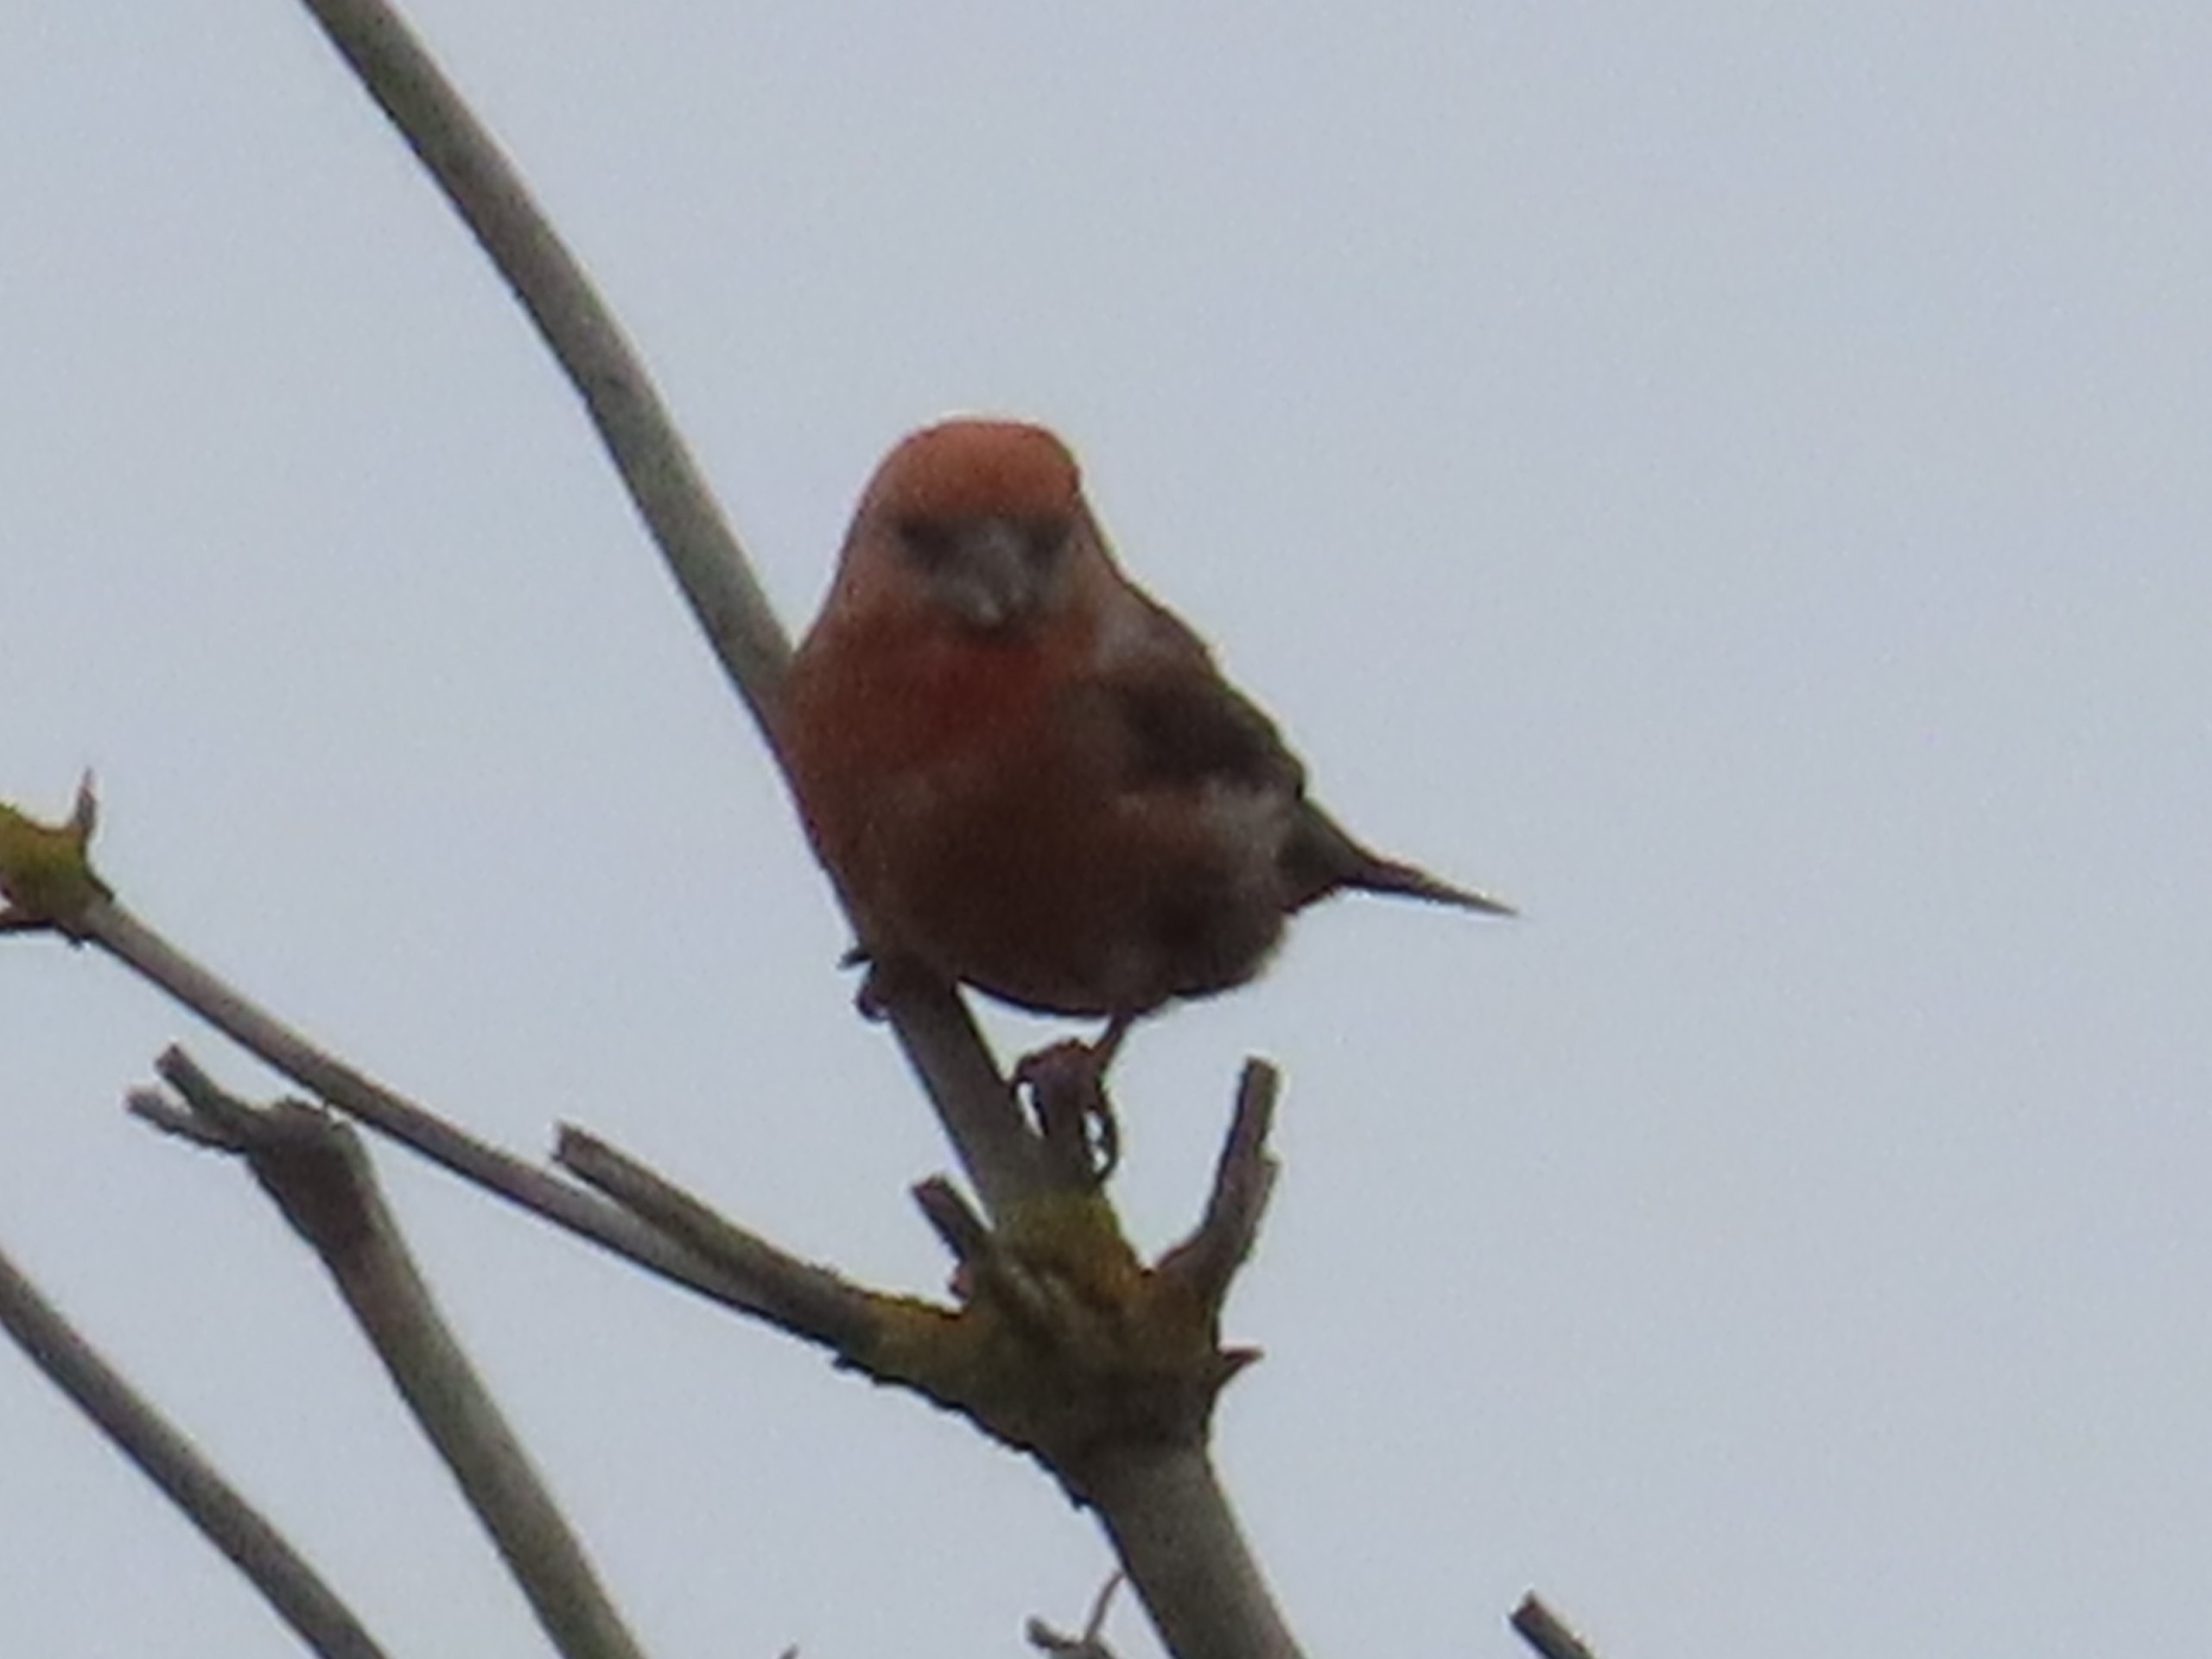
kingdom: Animalia
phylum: Chordata
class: Aves
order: Passeriformes
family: Fringillidae
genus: Loxia
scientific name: Loxia pytyopsittacus
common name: Stor korsnæb
